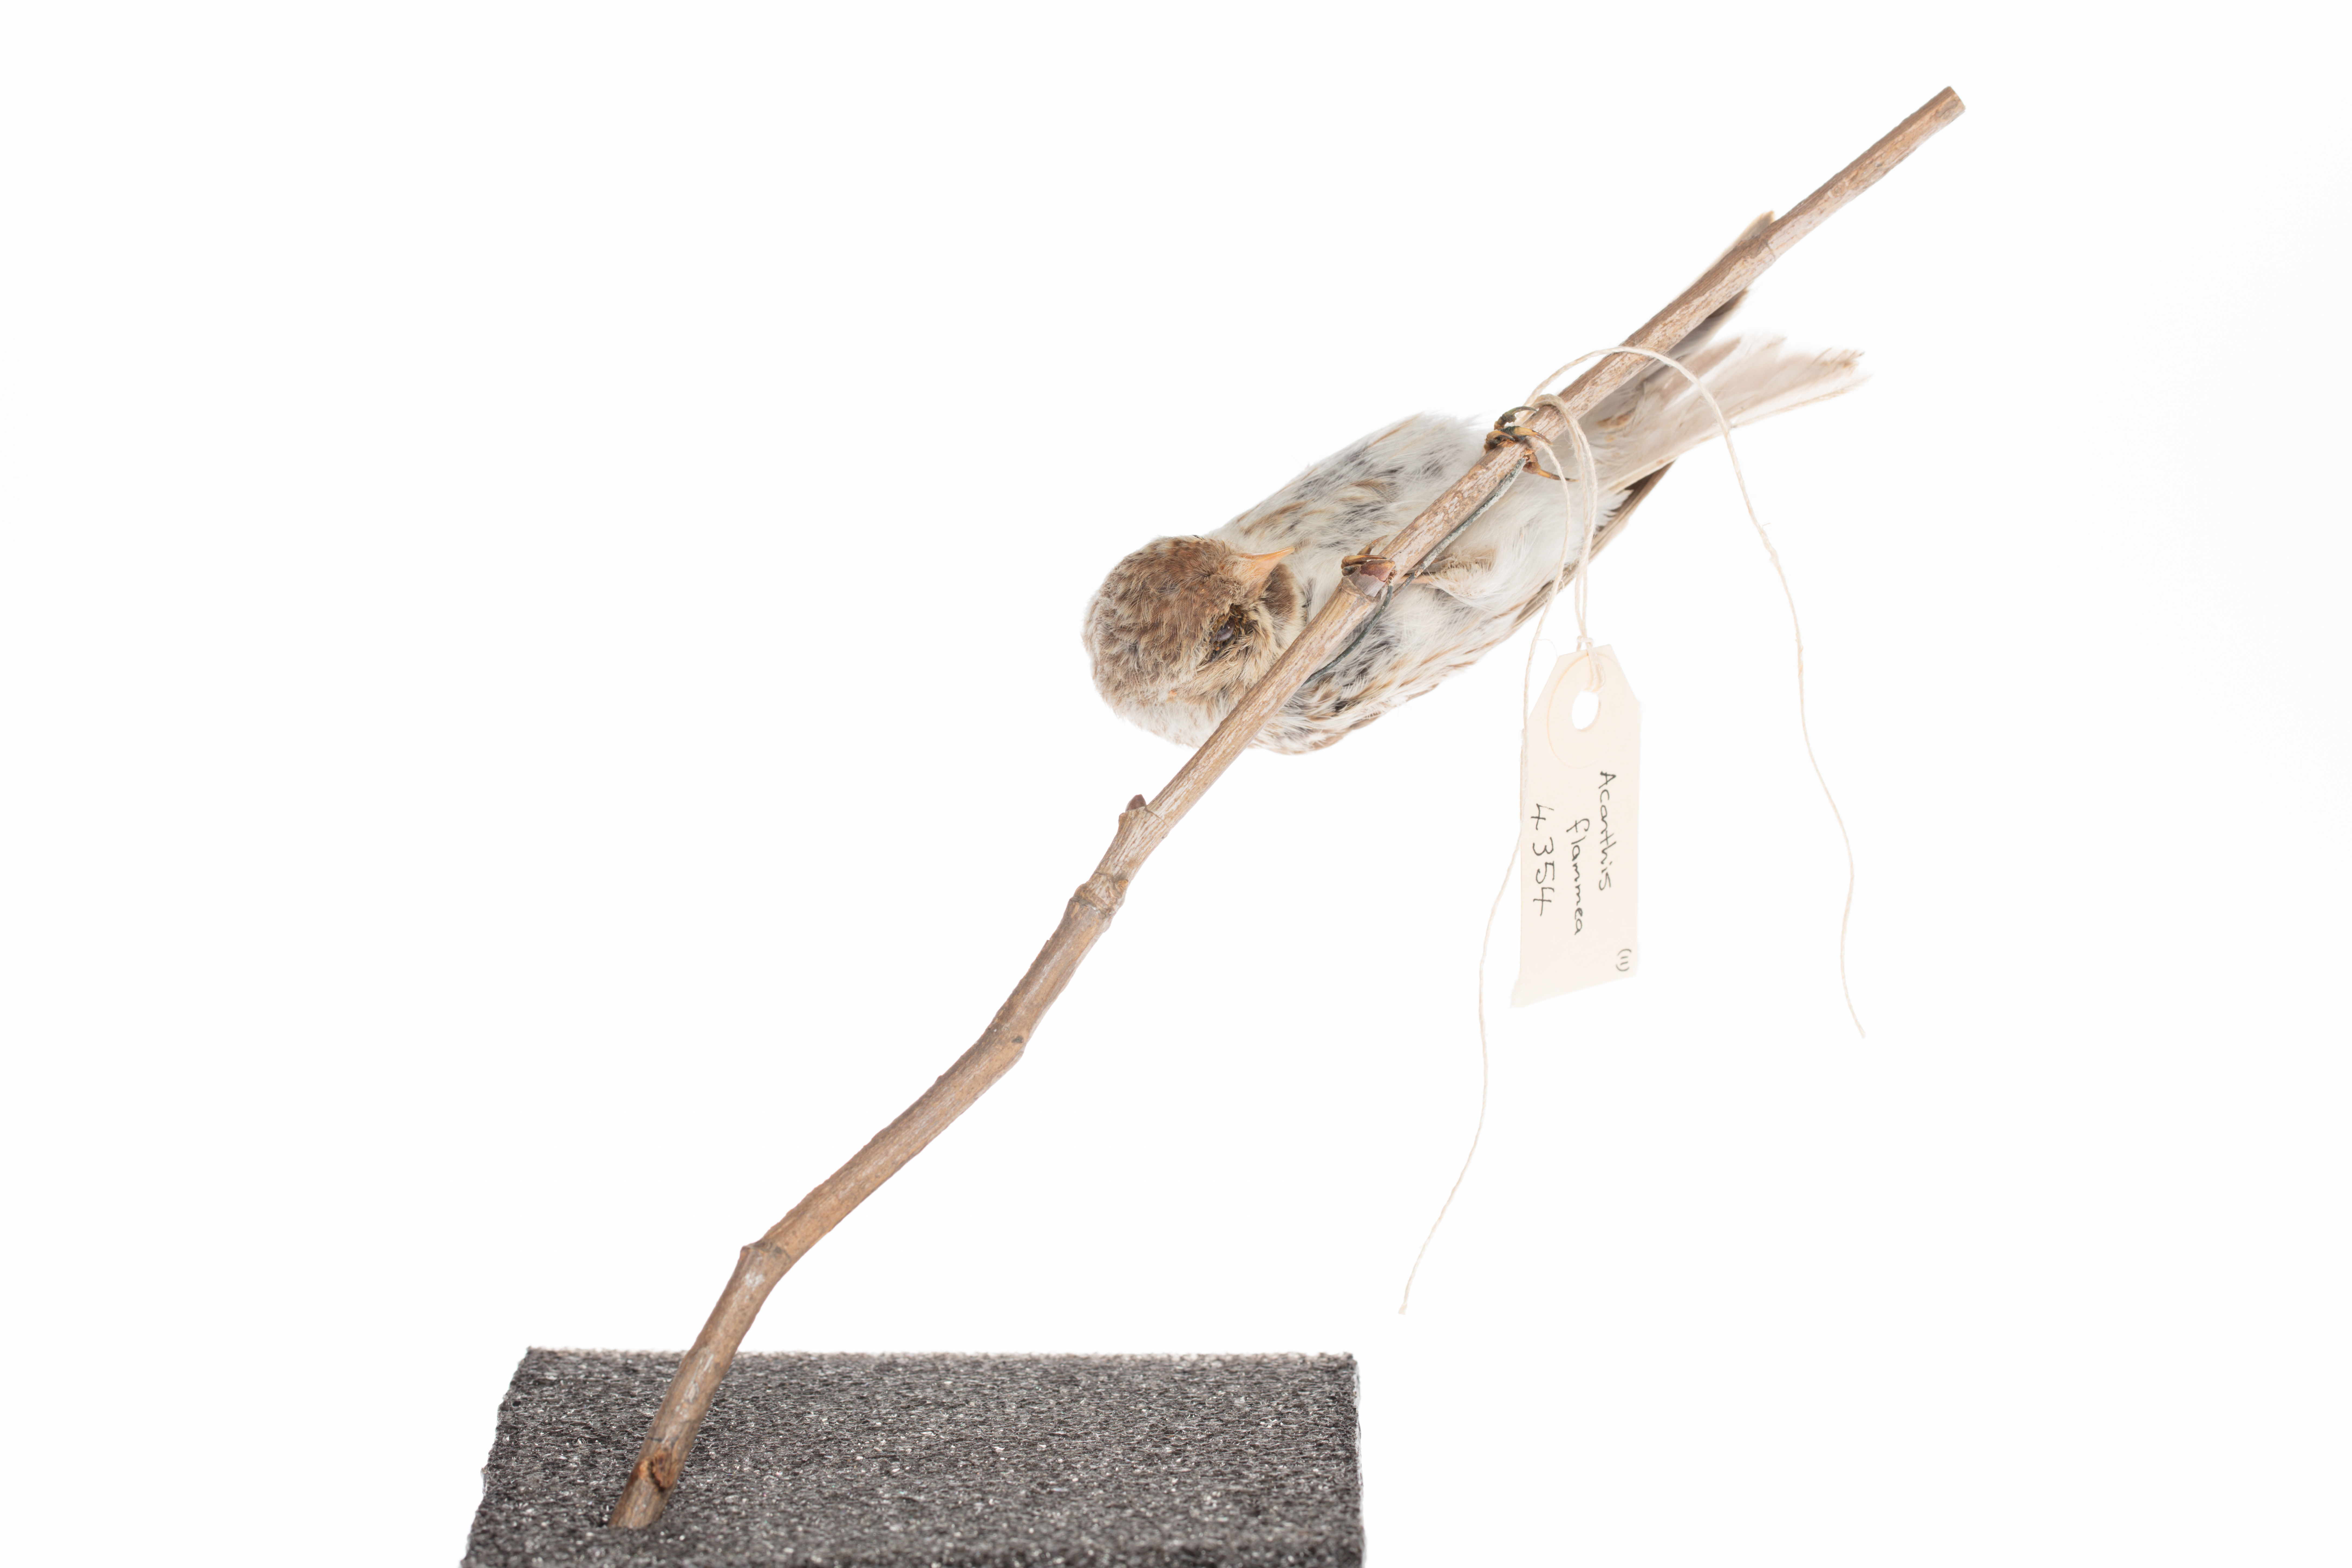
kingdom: Animalia
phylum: Chordata
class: Aves
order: Passeriformes
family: Fringillidae
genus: Acanthis
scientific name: Acanthis flammea
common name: Common redpoll
